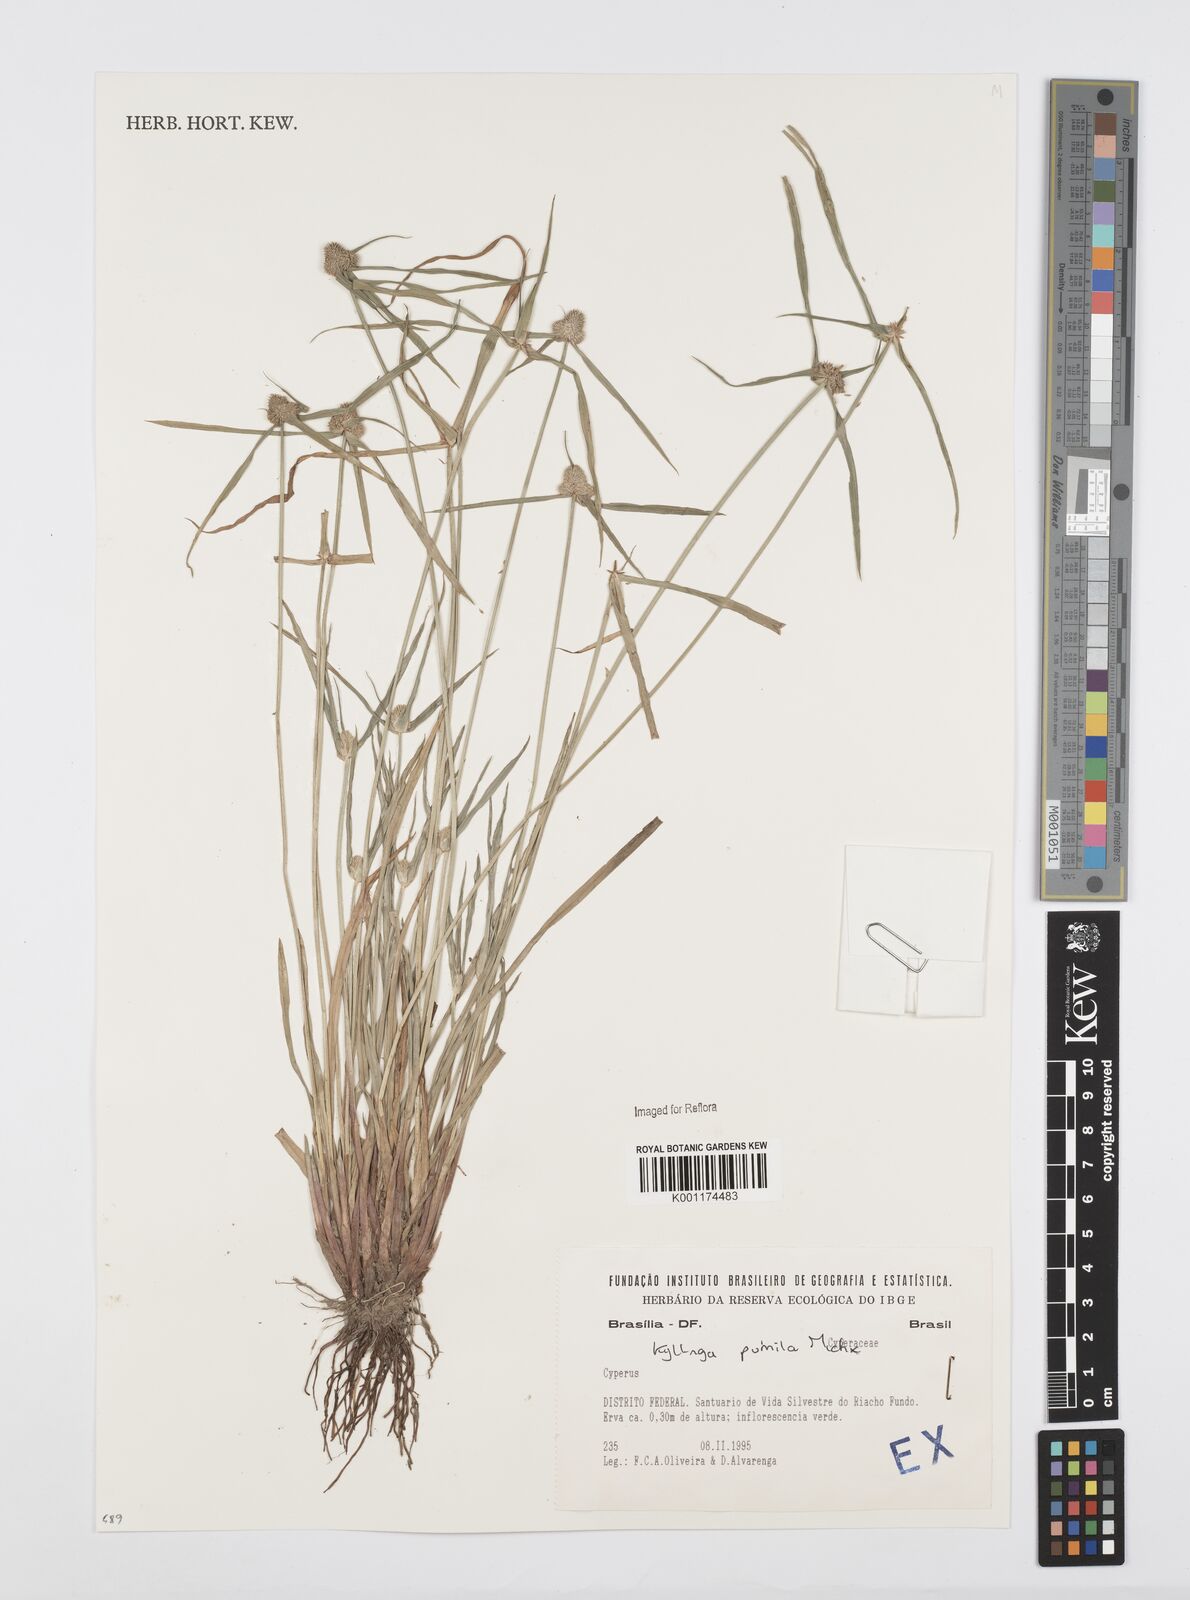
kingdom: Plantae
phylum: Tracheophyta
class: Liliopsida
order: Poales
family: Cyperaceae
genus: Cyperus
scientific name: Cyperus
